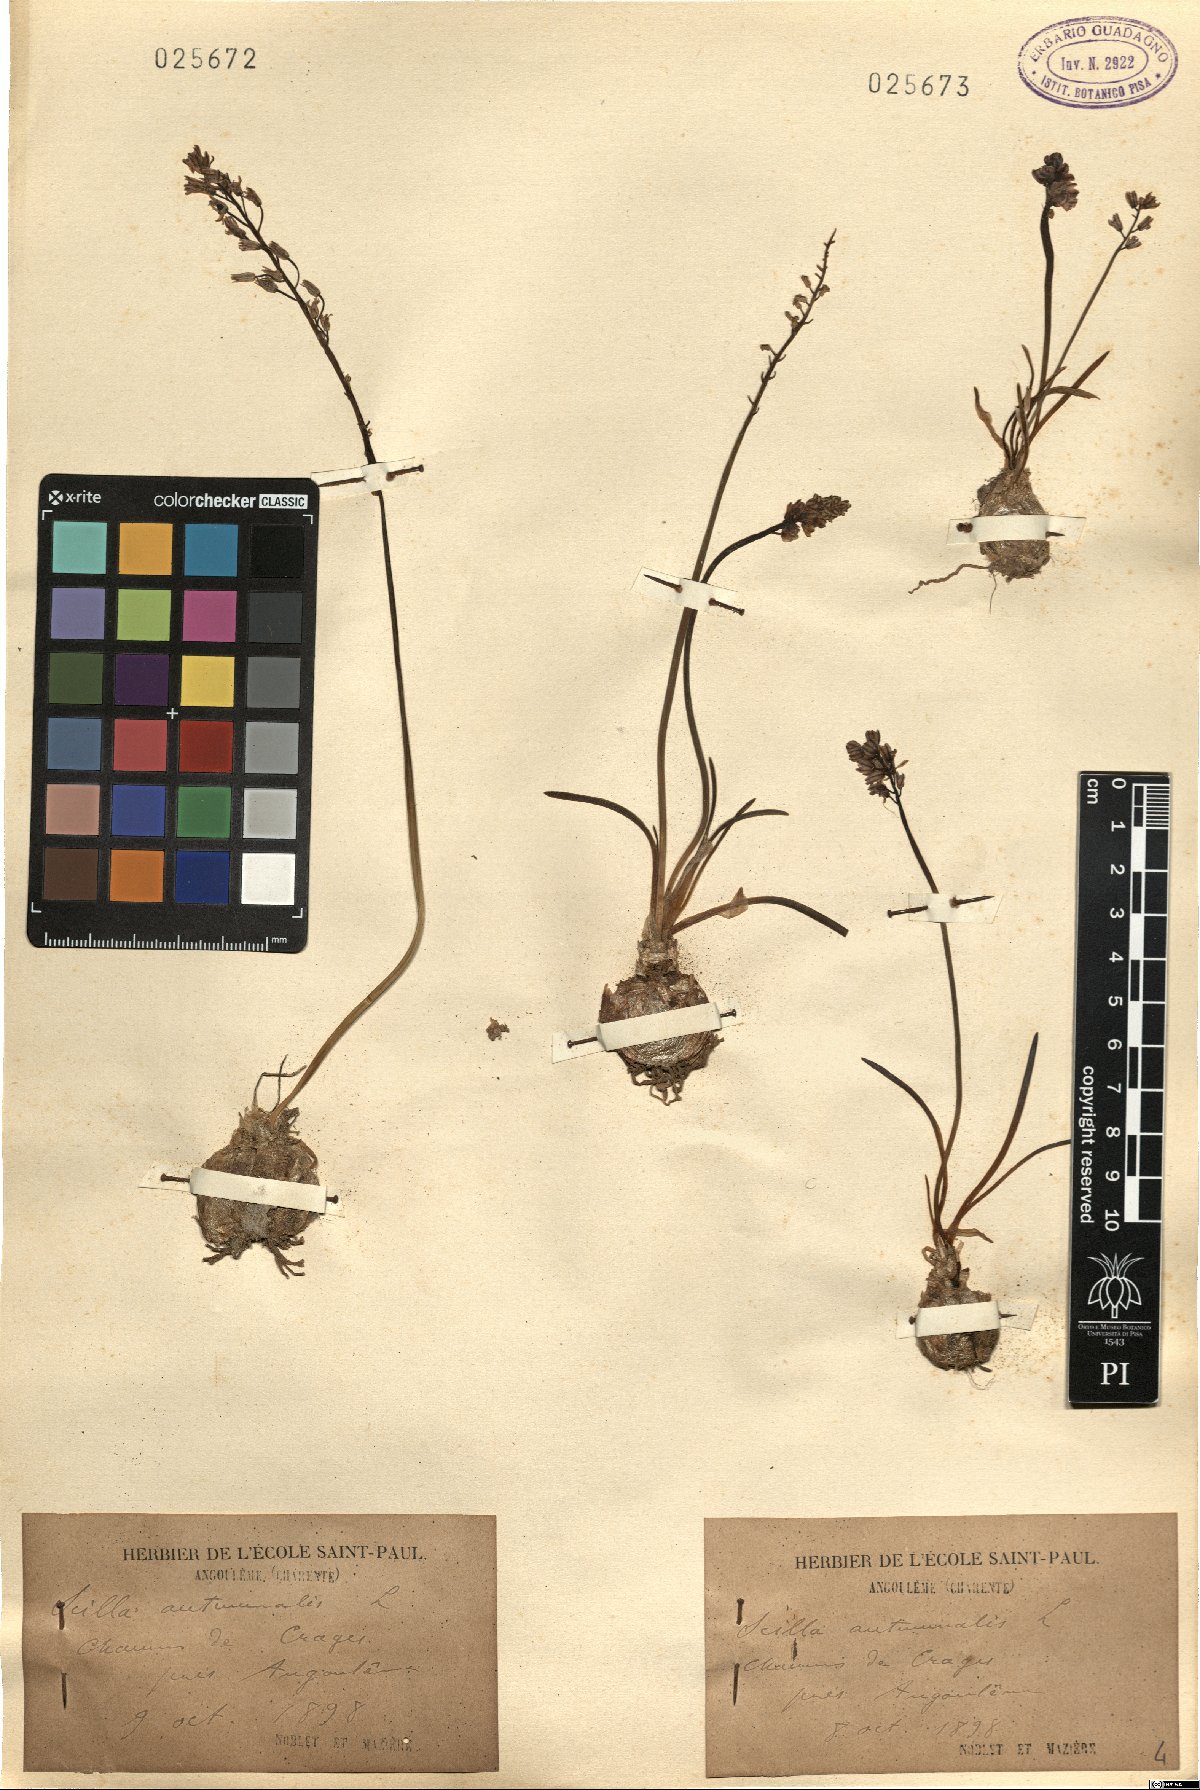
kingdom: Plantae
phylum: Tracheophyta
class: Liliopsida
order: Asparagales
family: Asparagaceae
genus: Prospero
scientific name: Prospero autumnale
